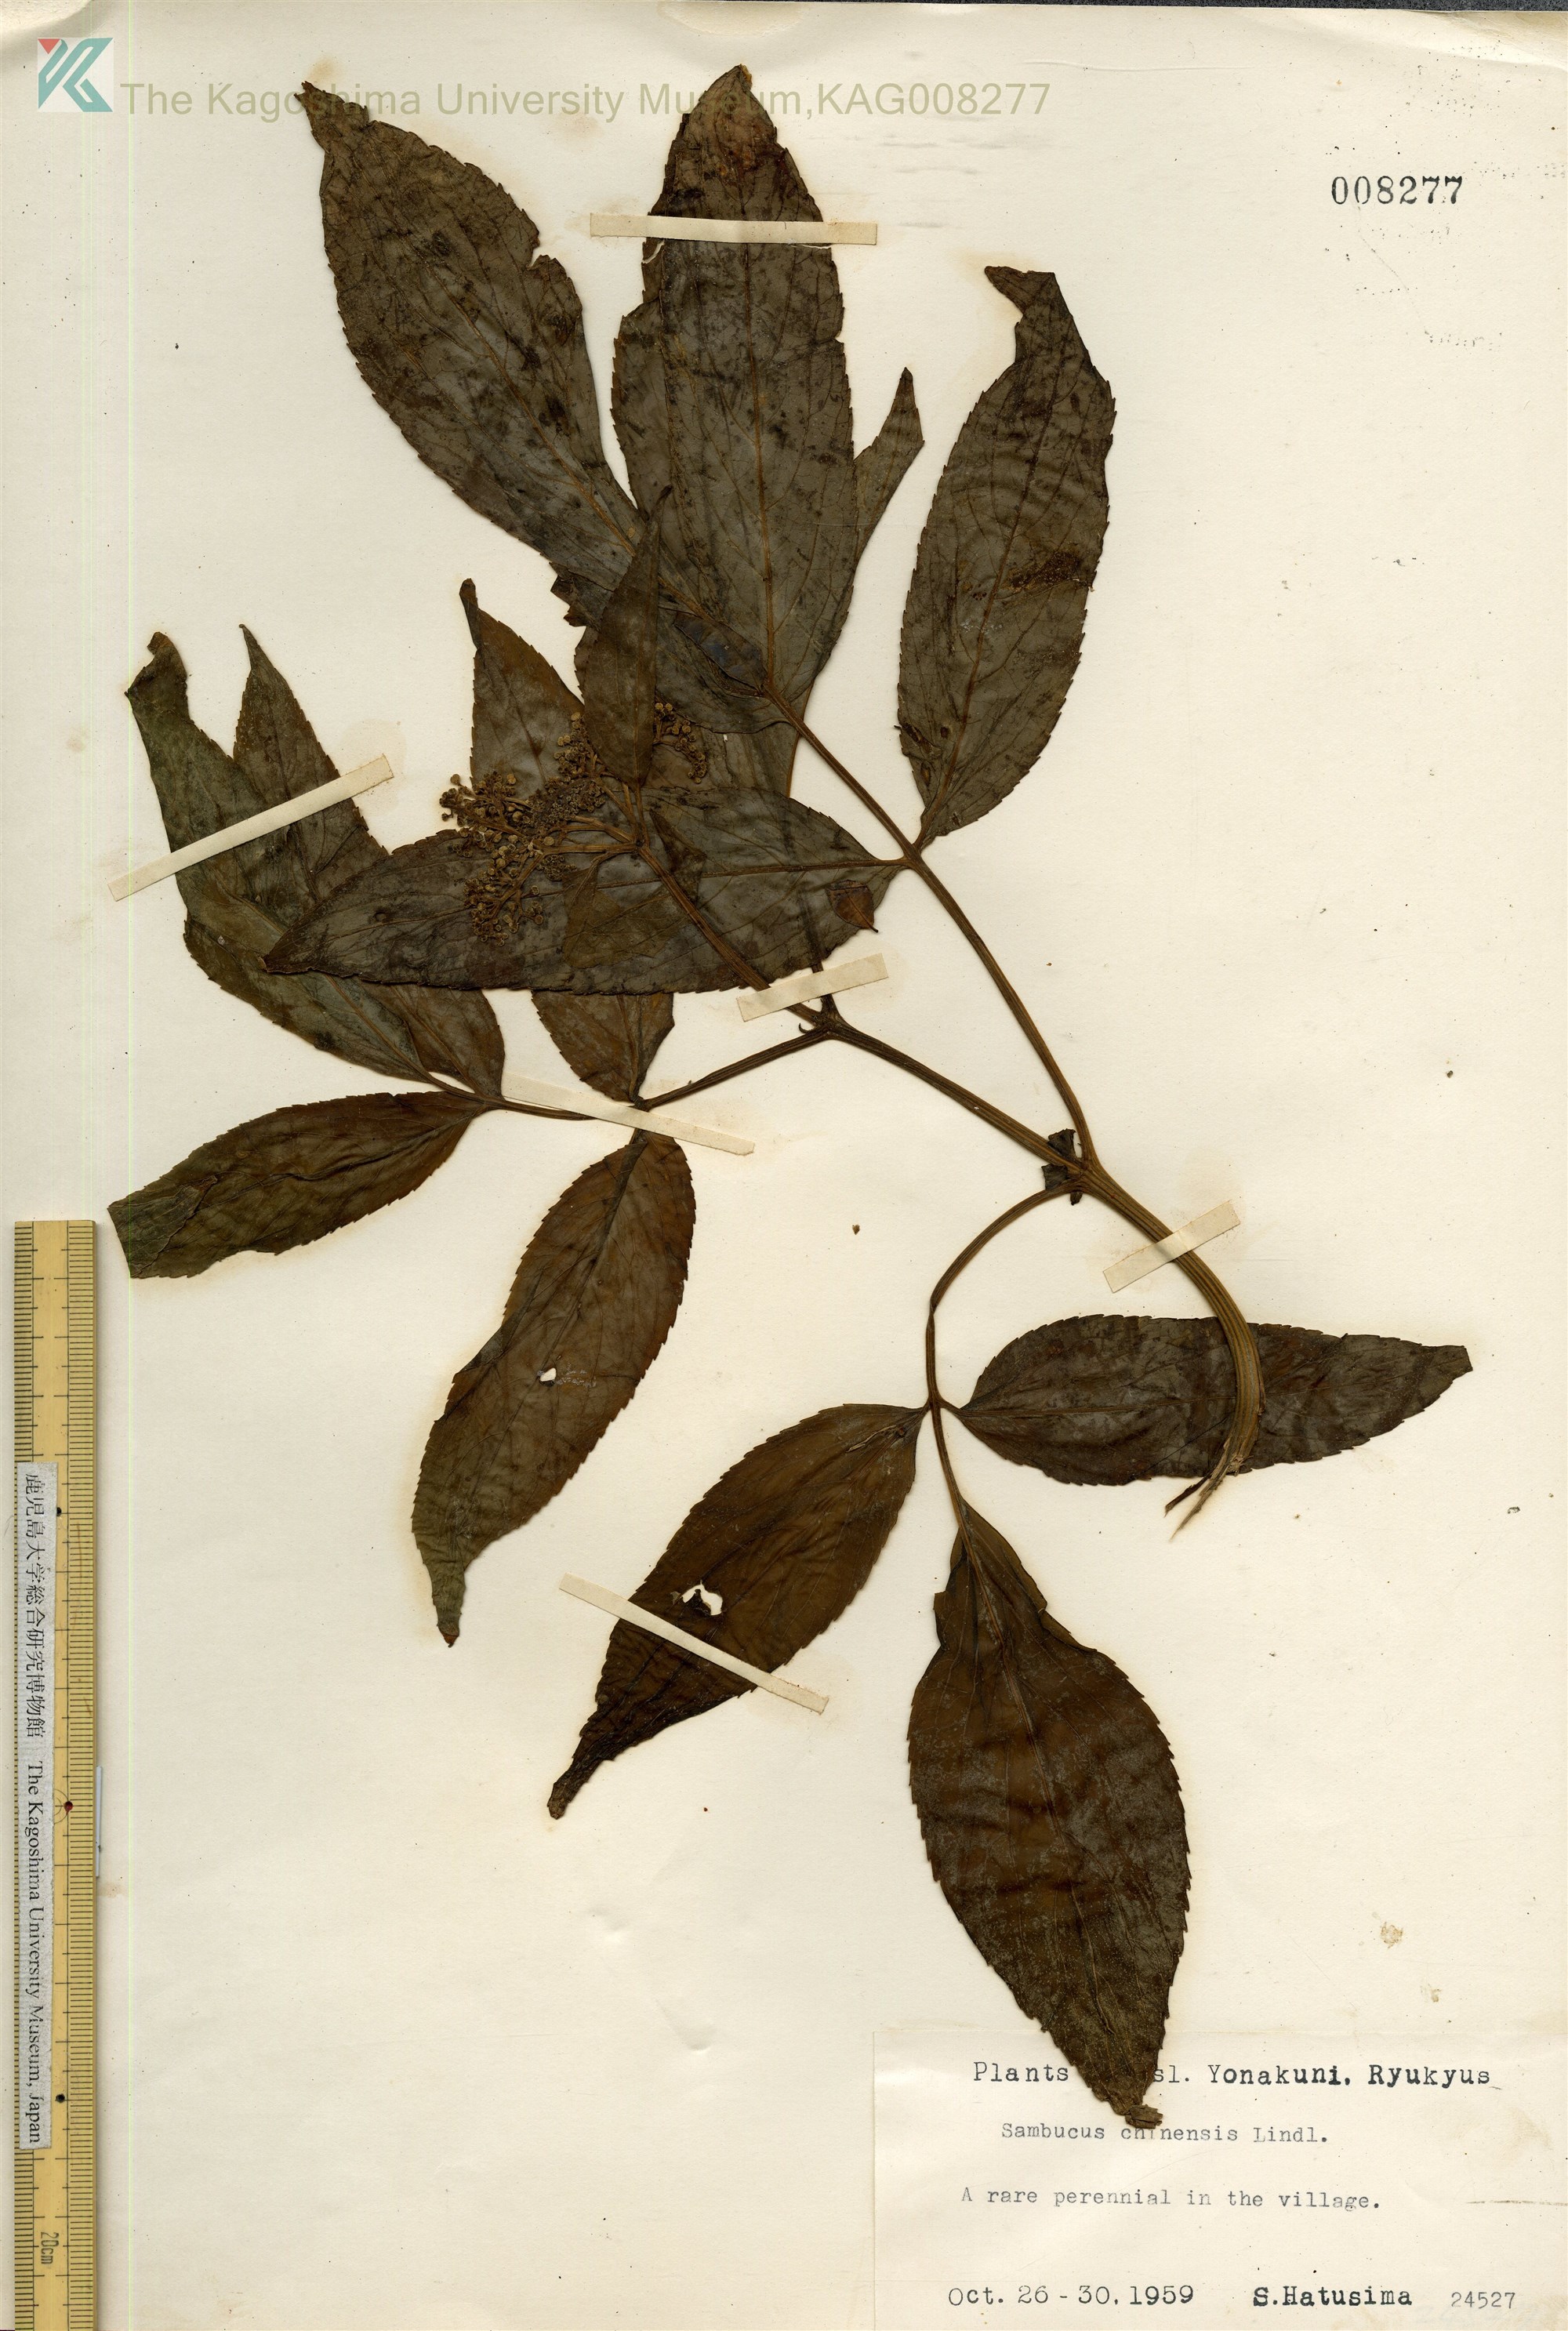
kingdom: Plantae
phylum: Tracheophyta
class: Magnoliopsida
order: Dipsacales
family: Viburnaceae
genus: Sambucus
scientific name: Sambucus javanica
